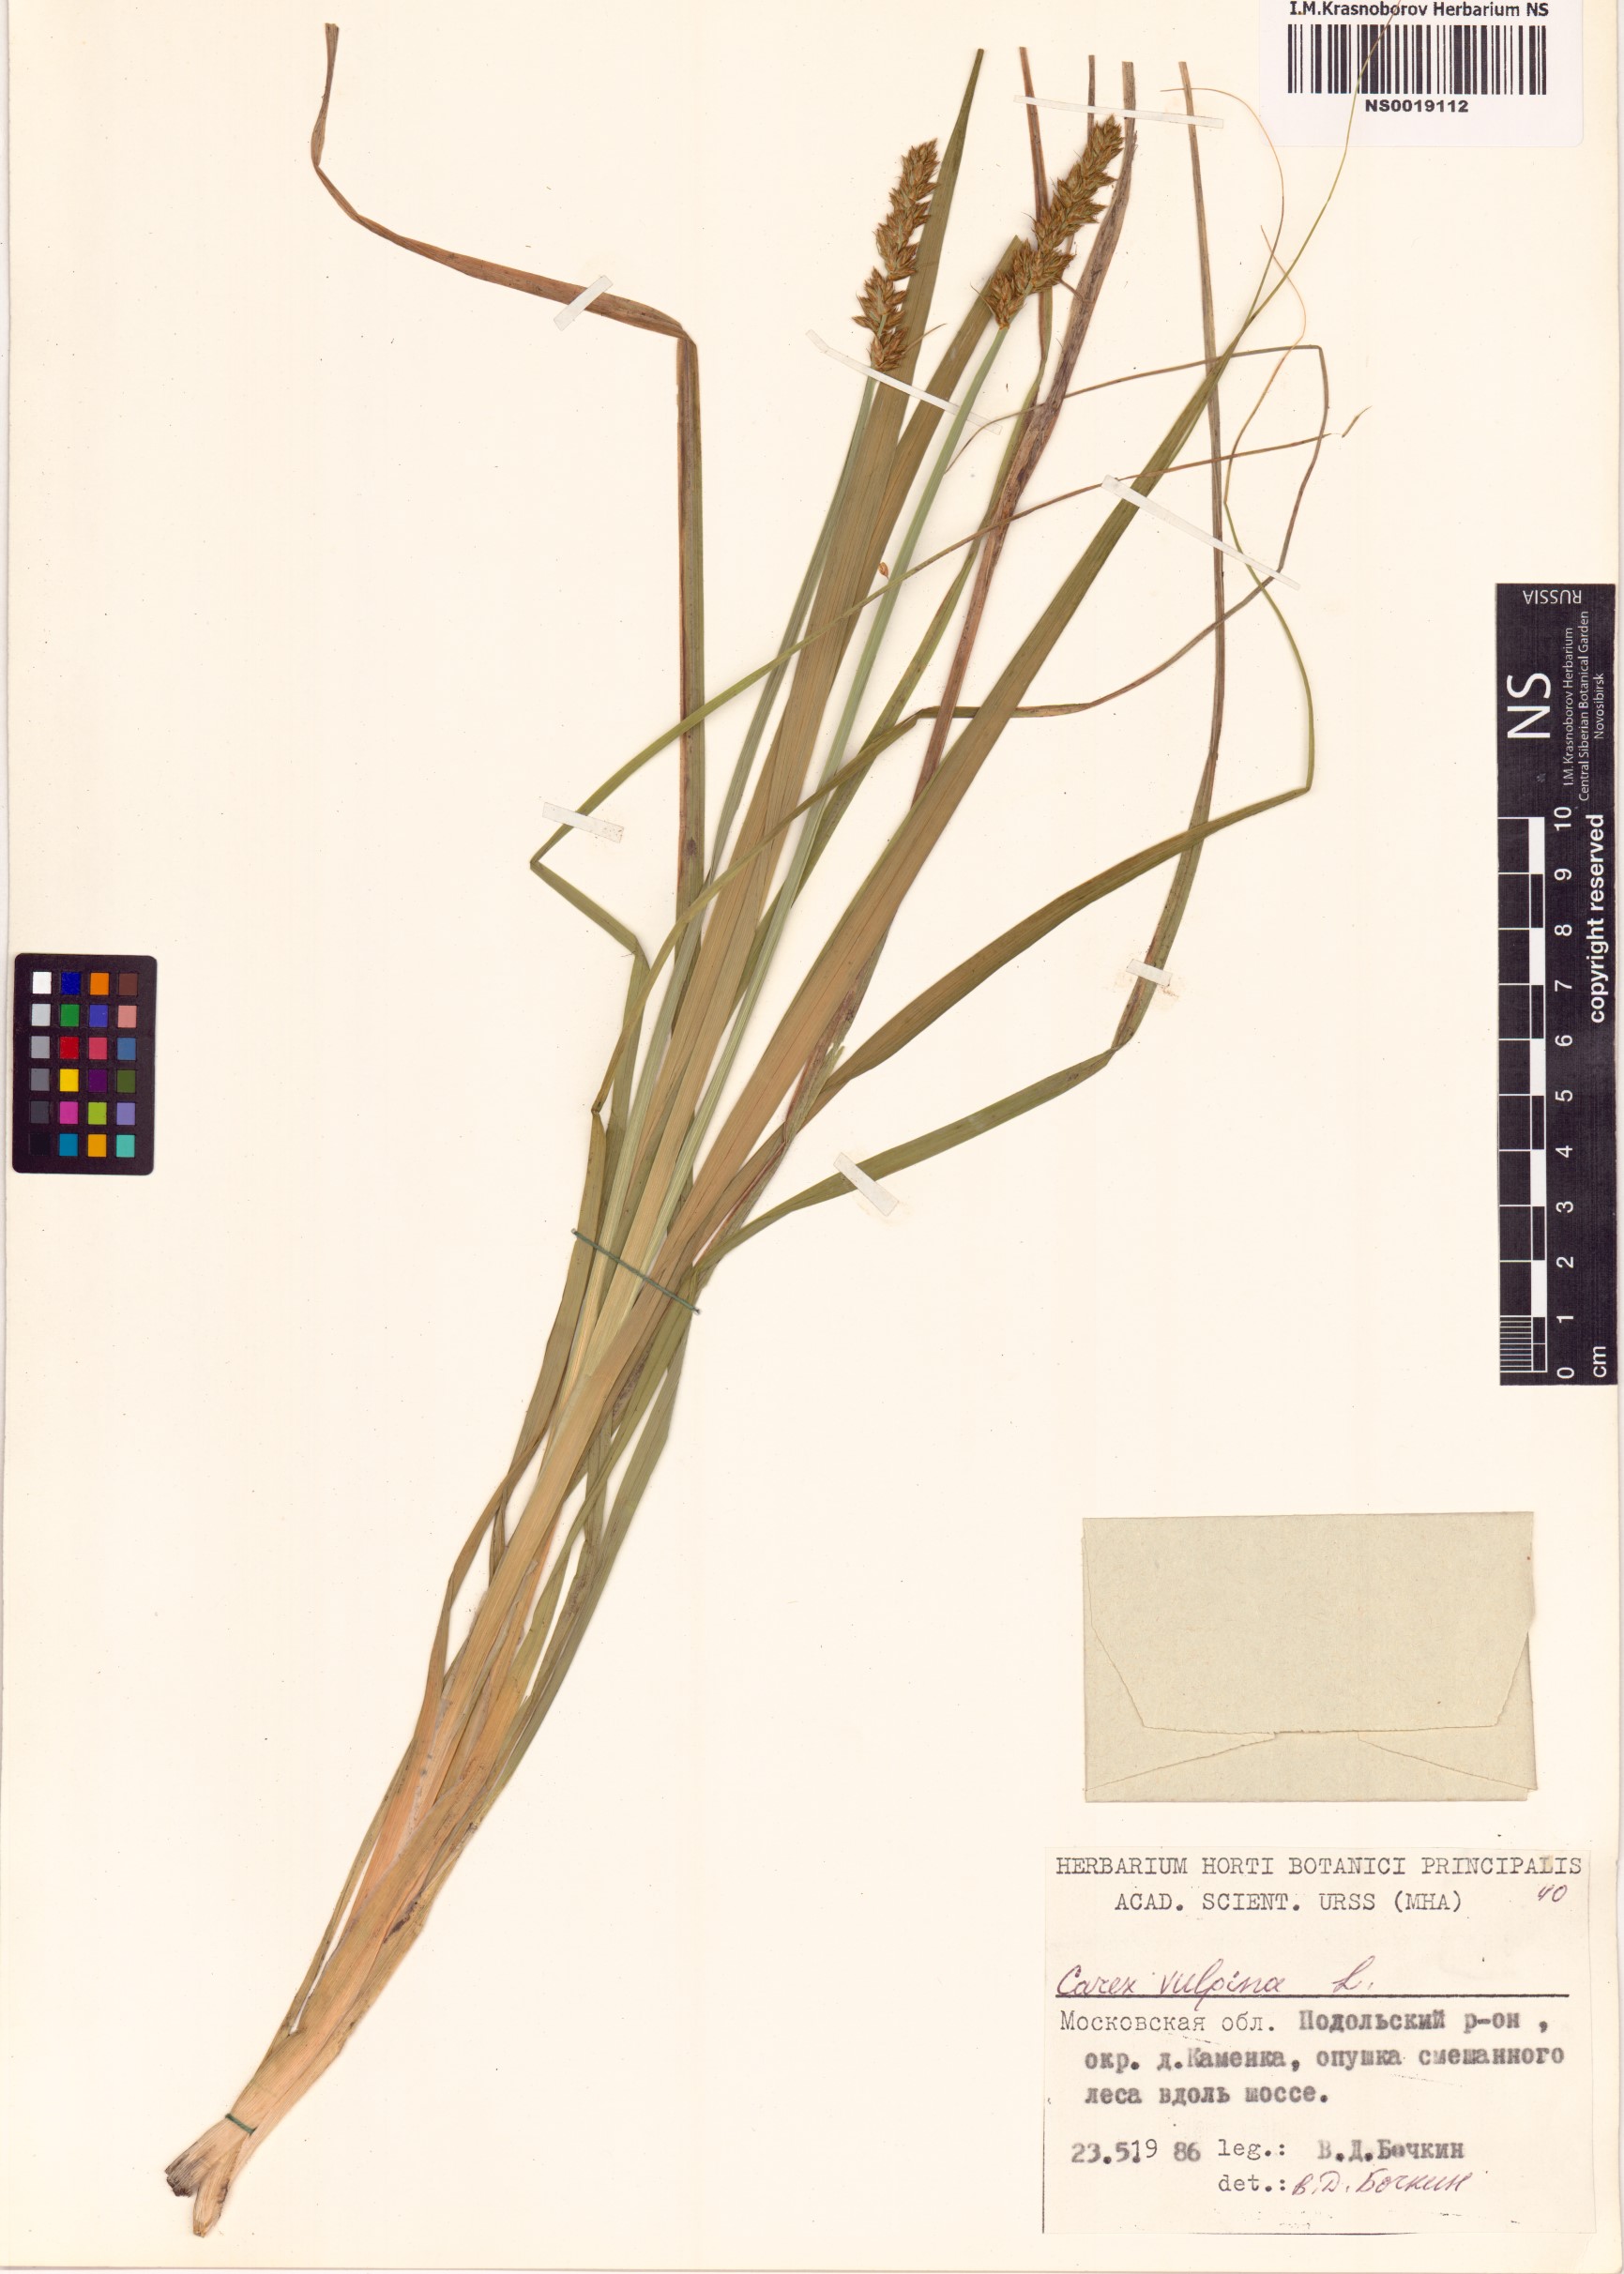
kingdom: Plantae
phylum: Tracheophyta
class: Liliopsida
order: Poales
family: Cyperaceae
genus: Carex
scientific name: Carex vulpina
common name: True fox-sedge
